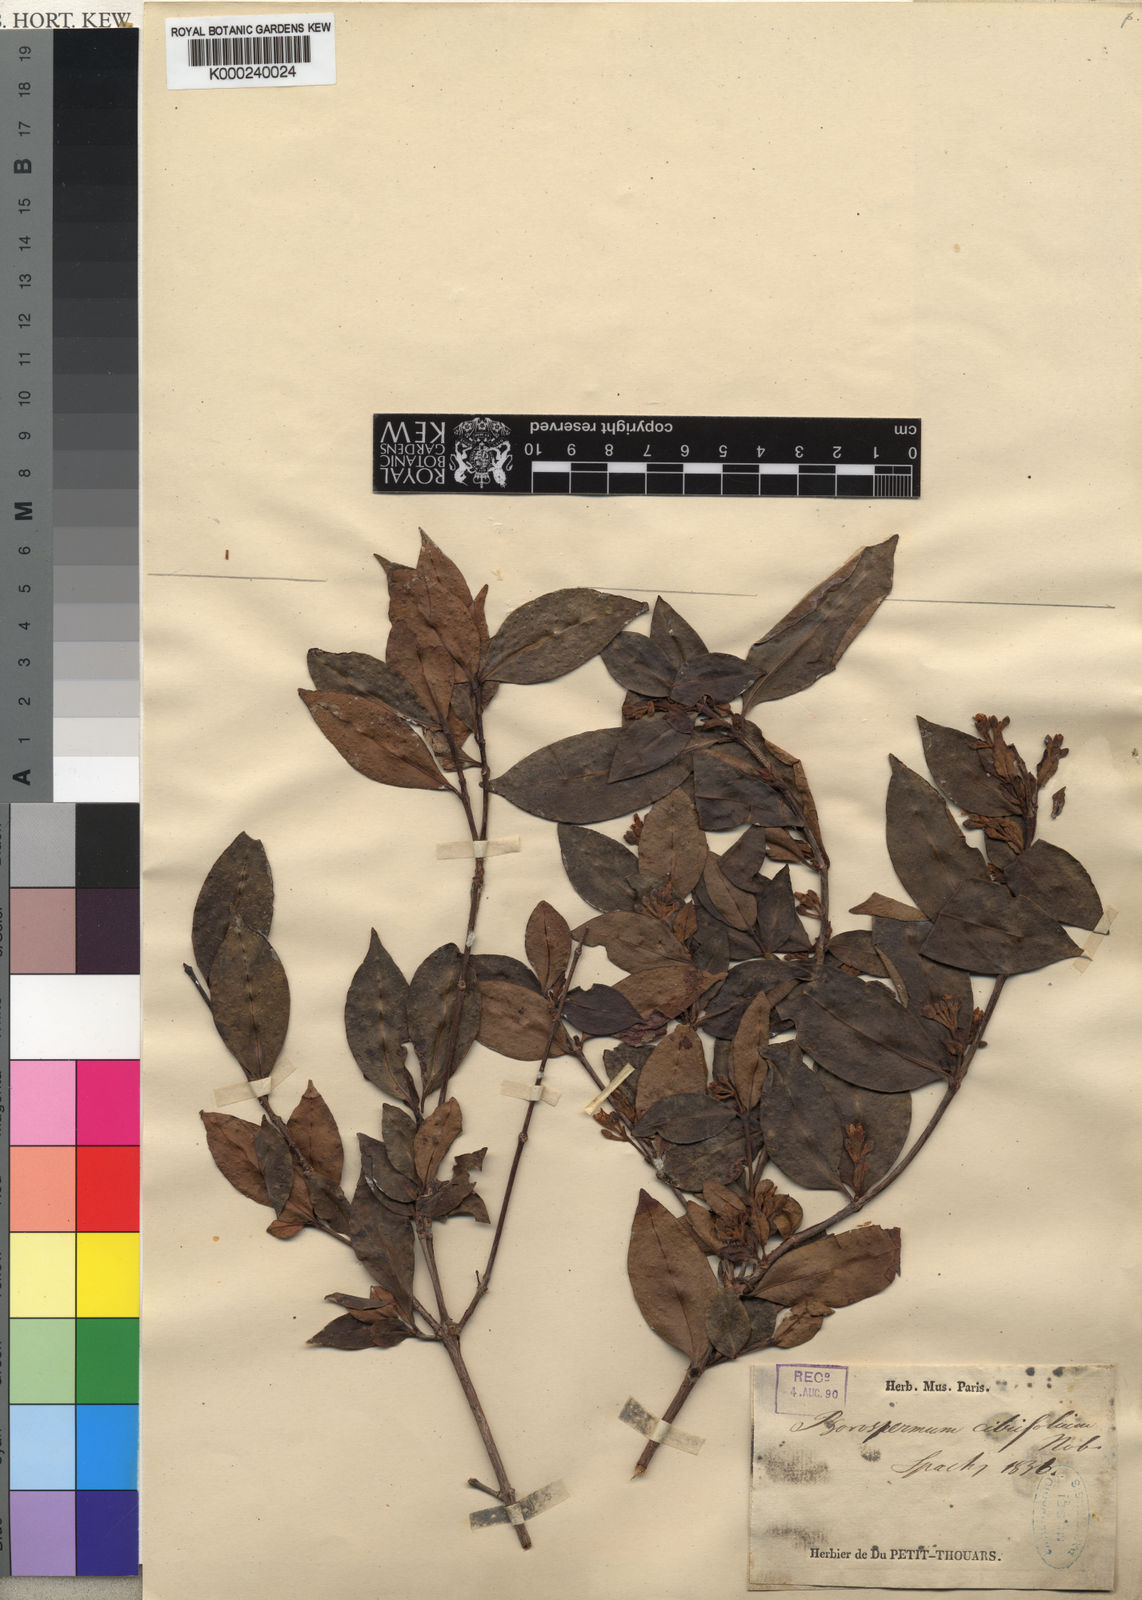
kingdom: Plantae
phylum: Tracheophyta
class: Magnoliopsida
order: Malpighiales
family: Hypericaceae
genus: Psorospermum
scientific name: Psorospermum lanceolatum
